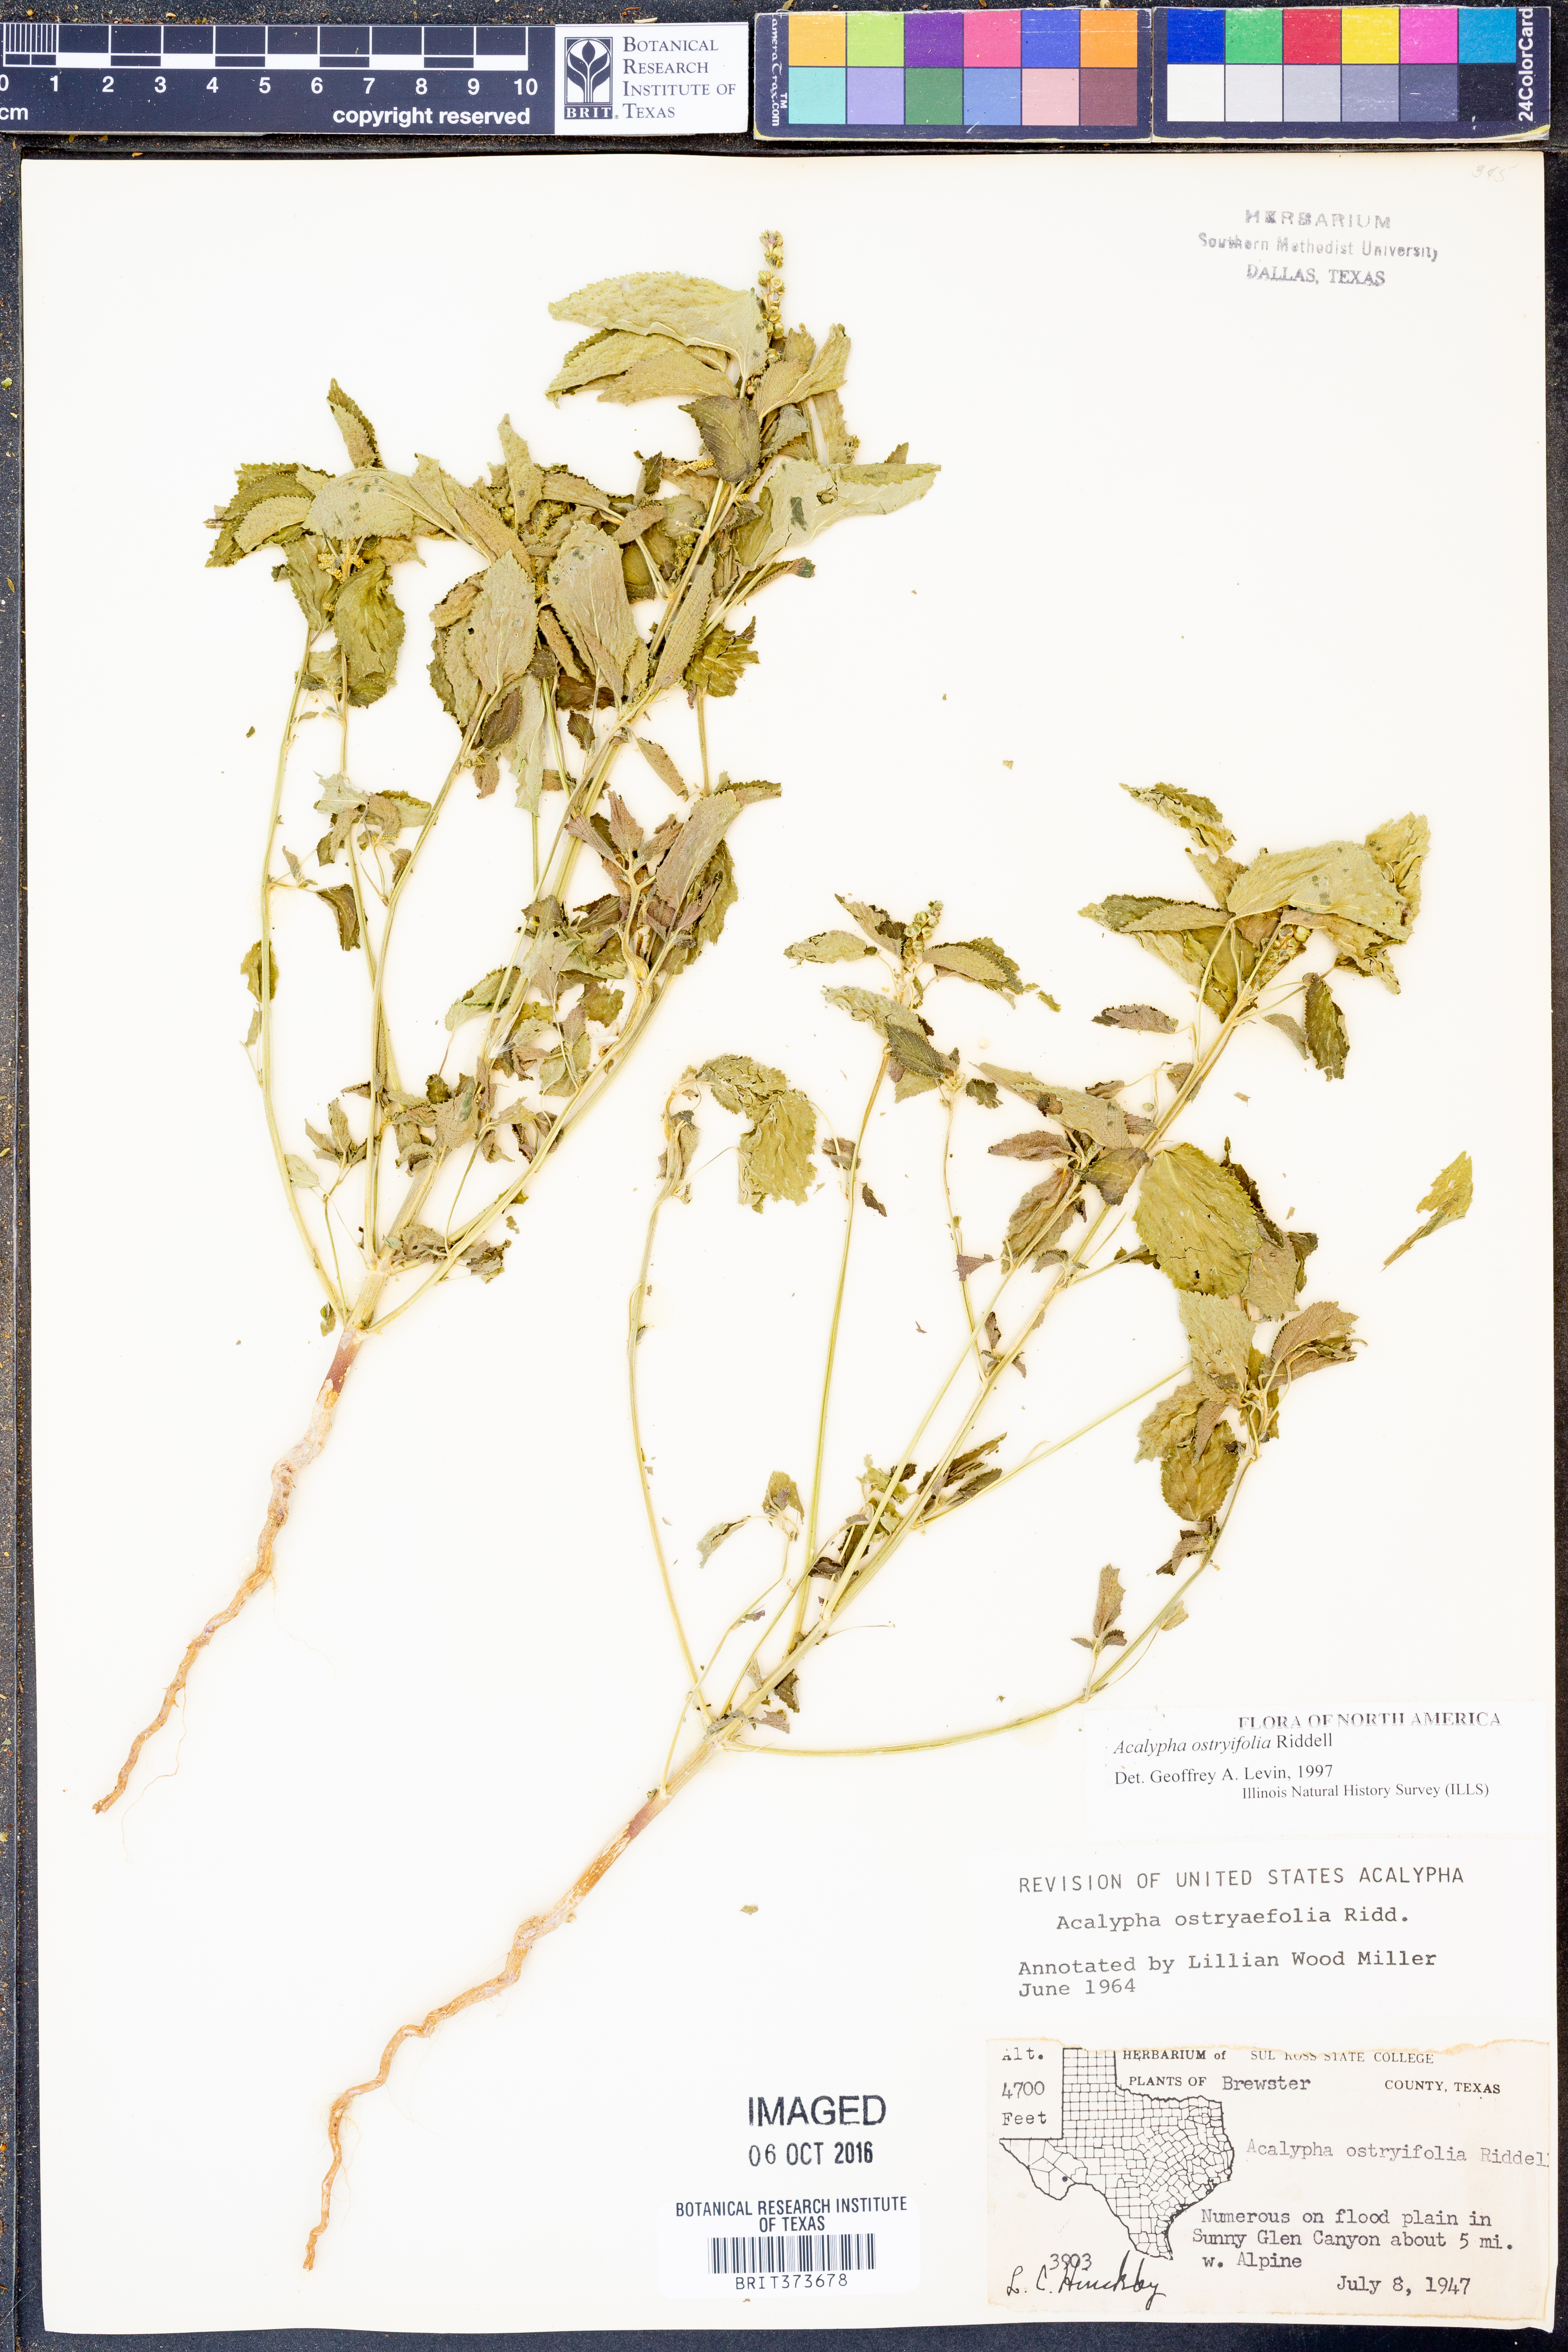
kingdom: Plantae
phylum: Tracheophyta
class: Magnoliopsida
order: Malpighiales
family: Euphorbiaceae
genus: Acalypha
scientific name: Acalypha persimilis
